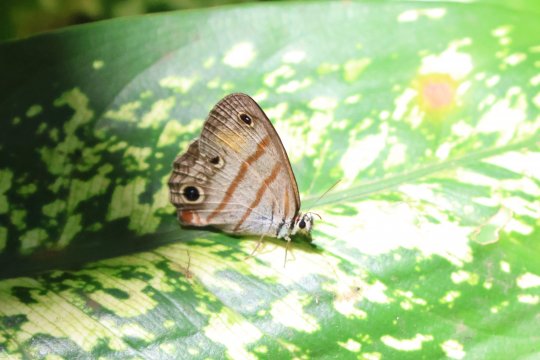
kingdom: Animalia
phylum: Arthropoda
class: Insecta
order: Lepidoptera
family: Nymphalidae
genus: Euptychia
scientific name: Euptychia Cissia labe
